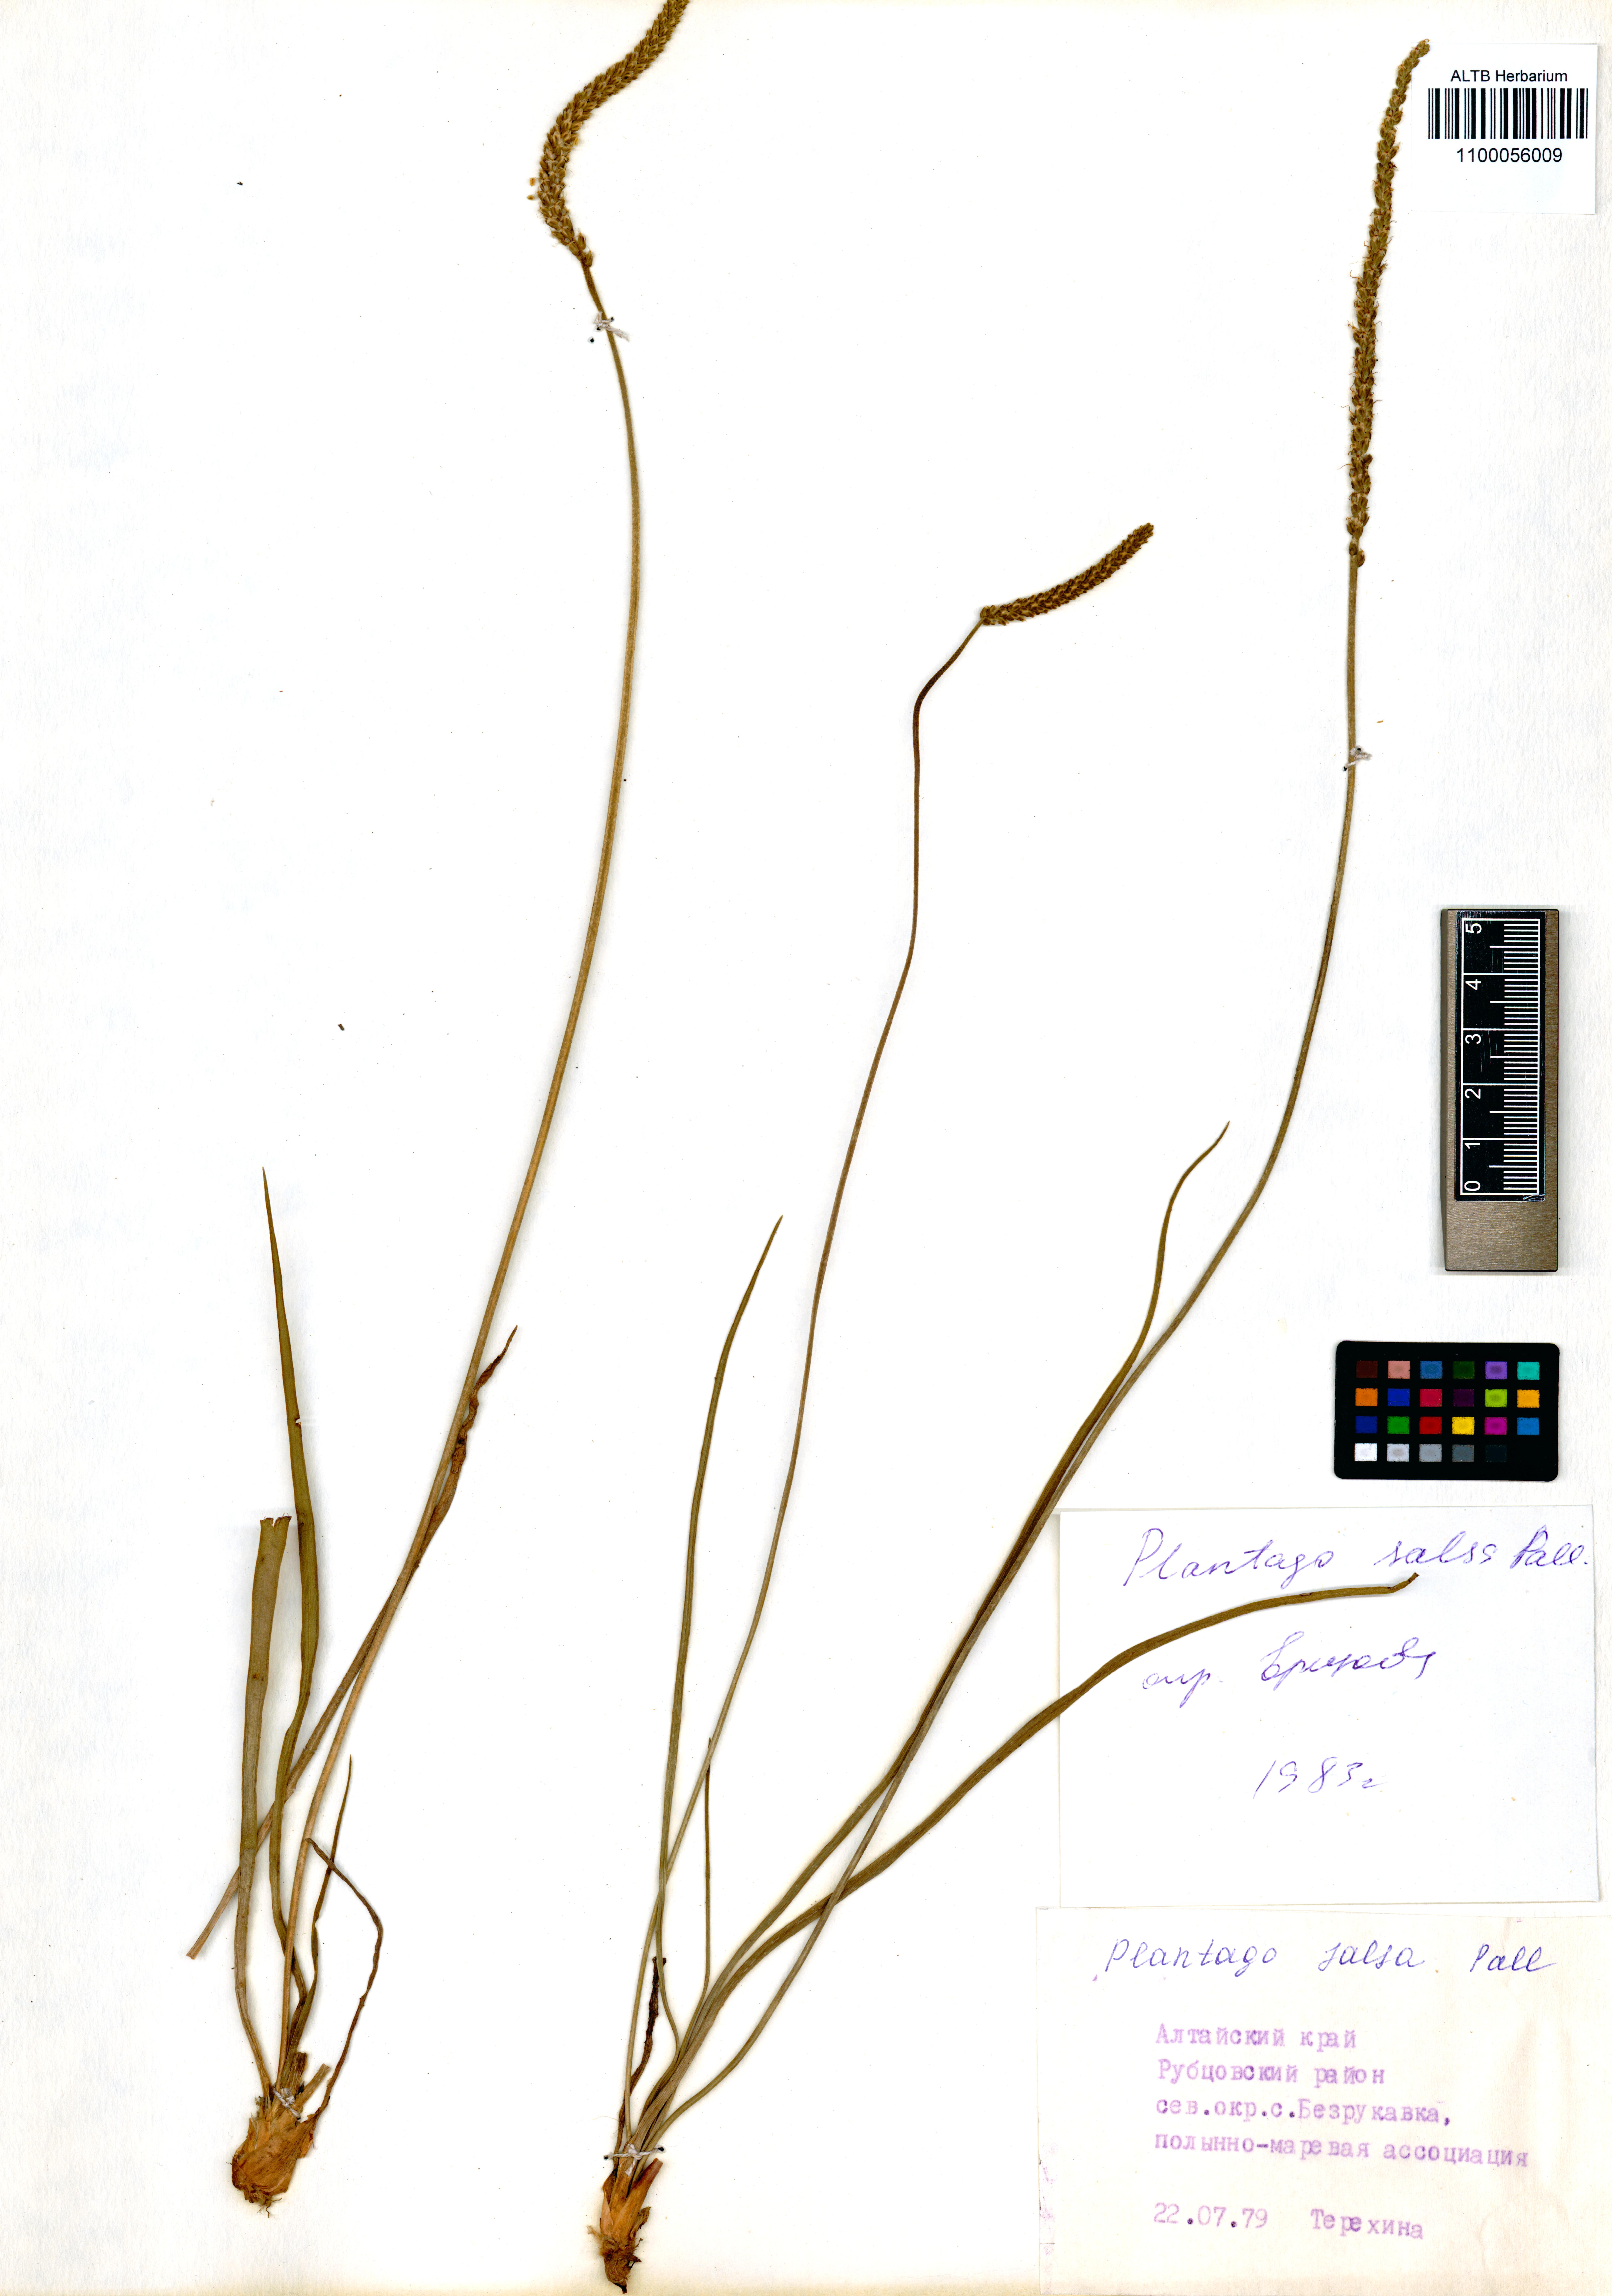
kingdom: Plantae
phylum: Tracheophyta
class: Magnoliopsida
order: Lamiales
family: Plantaginaceae
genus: Plantago
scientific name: Plantago salsa
